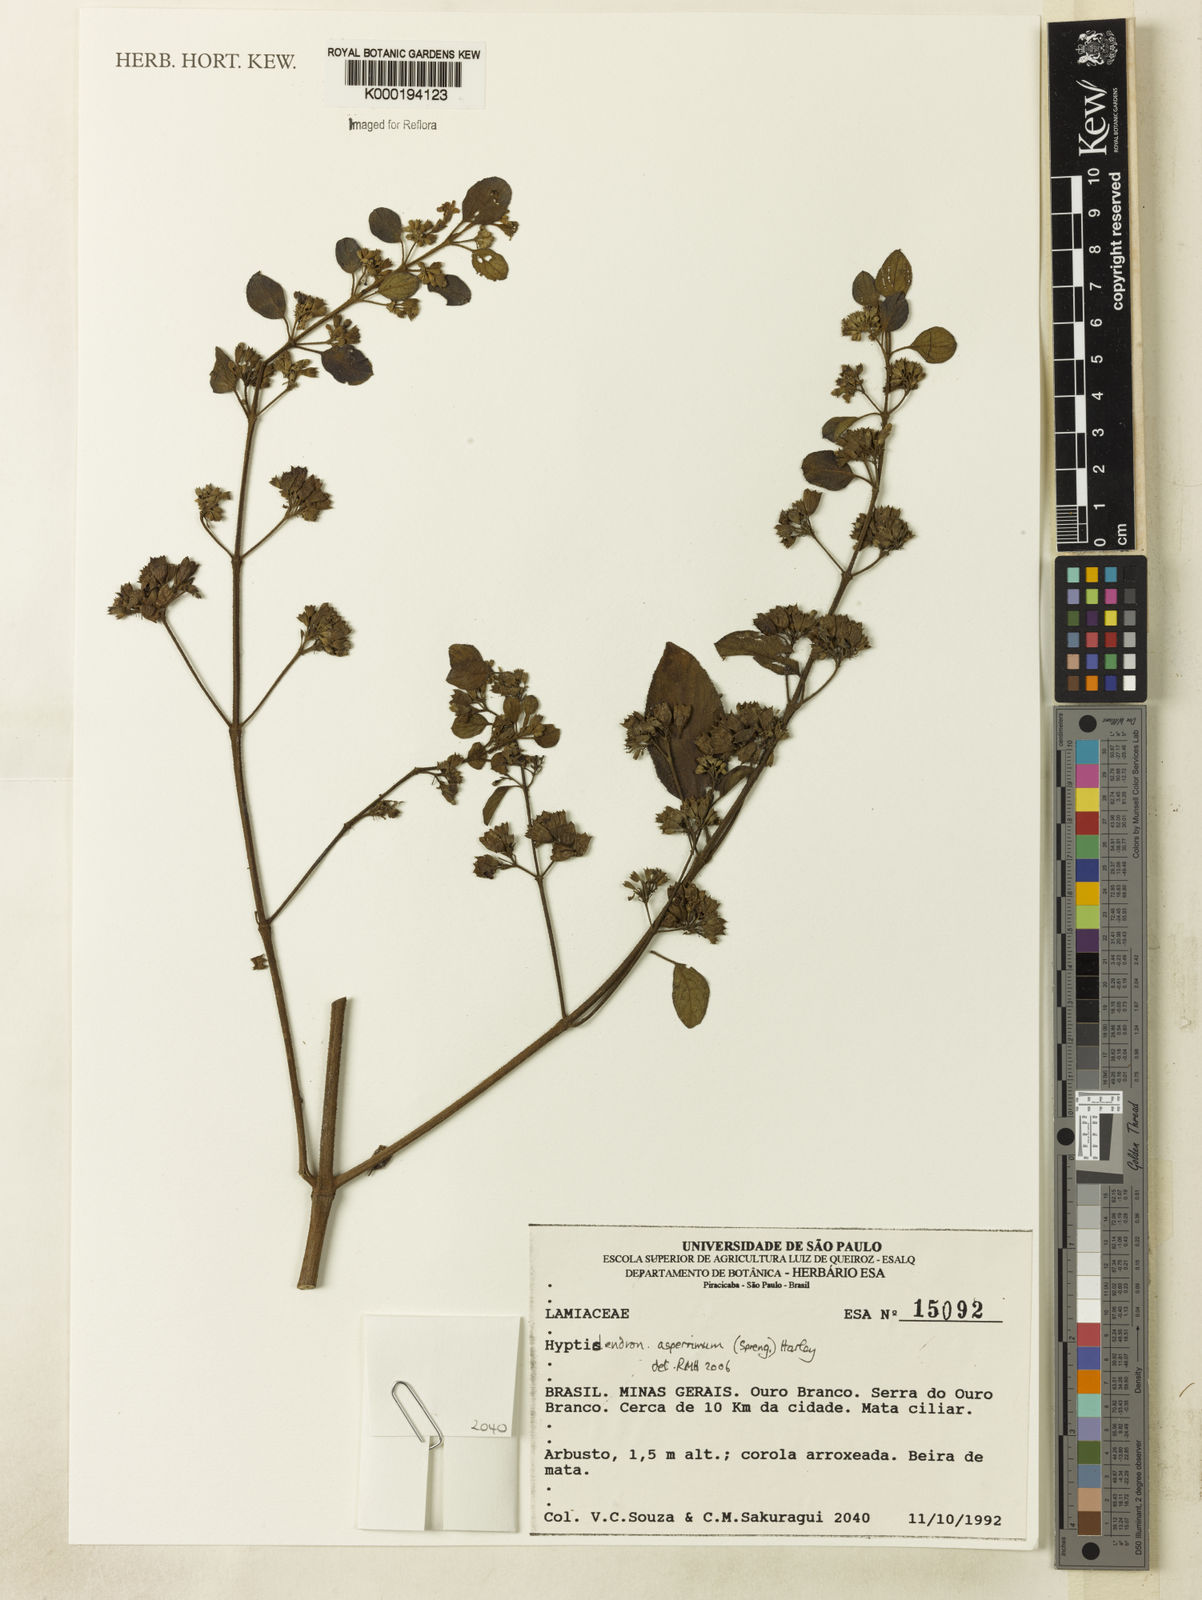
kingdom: Plantae
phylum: Tracheophyta
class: Magnoliopsida
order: Lamiales
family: Lamiaceae
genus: Hyptidendron
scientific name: Hyptidendron asperrimum
